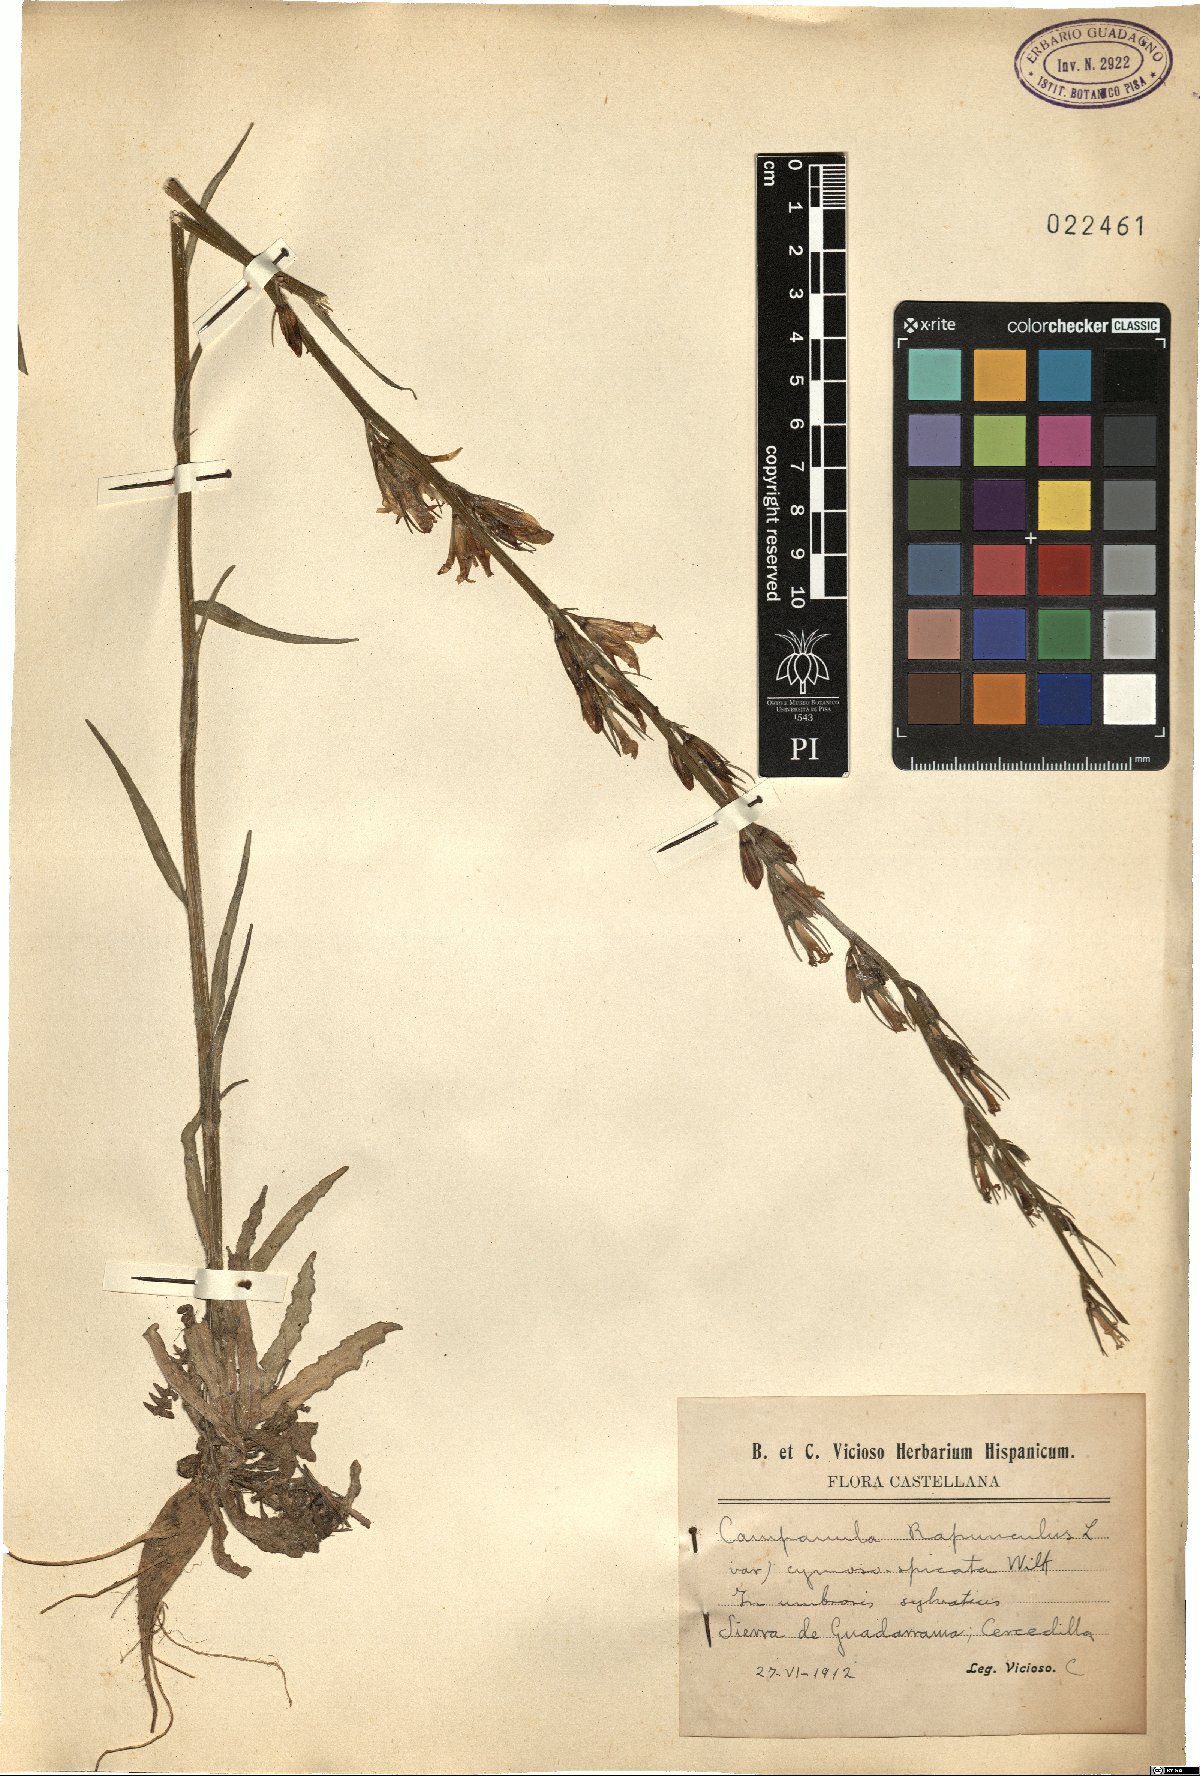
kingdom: Plantae
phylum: Tracheophyta
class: Magnoliopsida
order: Asterales
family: Campanulaceae
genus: Campanula
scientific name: Campanula rapunculus
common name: Rampion bellflower
